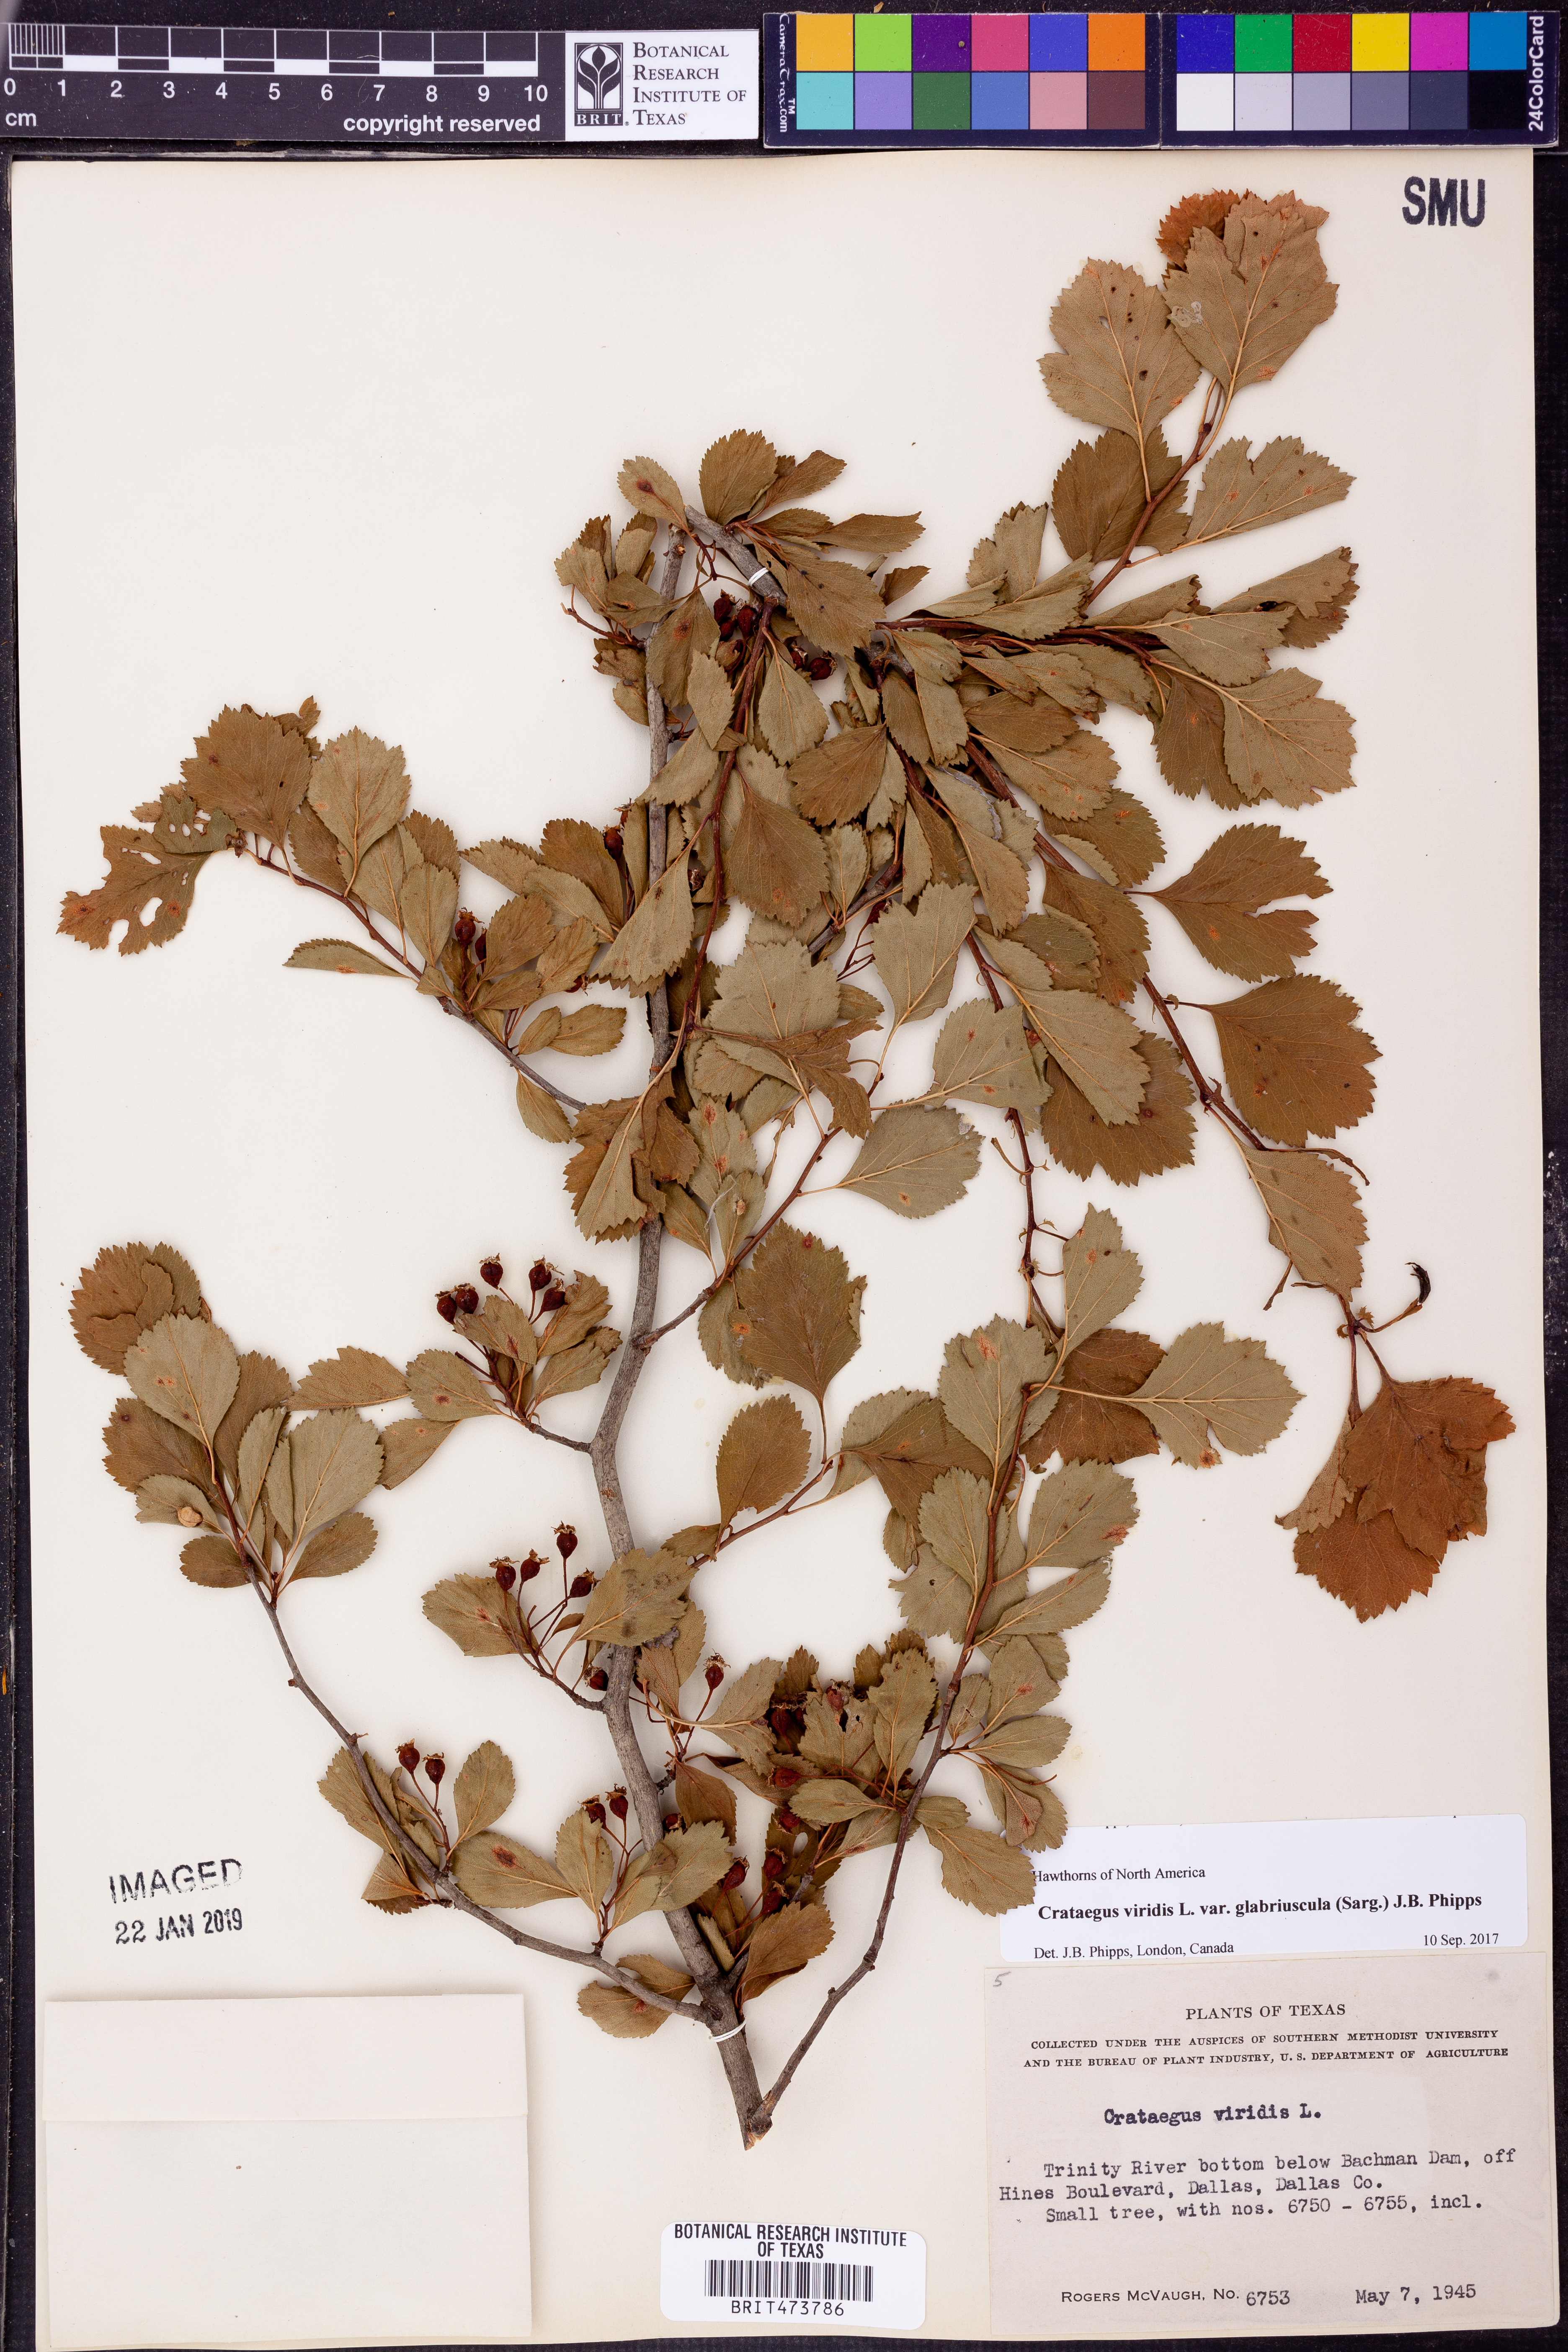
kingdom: Plantae
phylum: Tracheophyta
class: Magnoliopsida
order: Rosales
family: Rosaceae
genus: Crataegus
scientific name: Crataegus viridis
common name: Southernthorn
